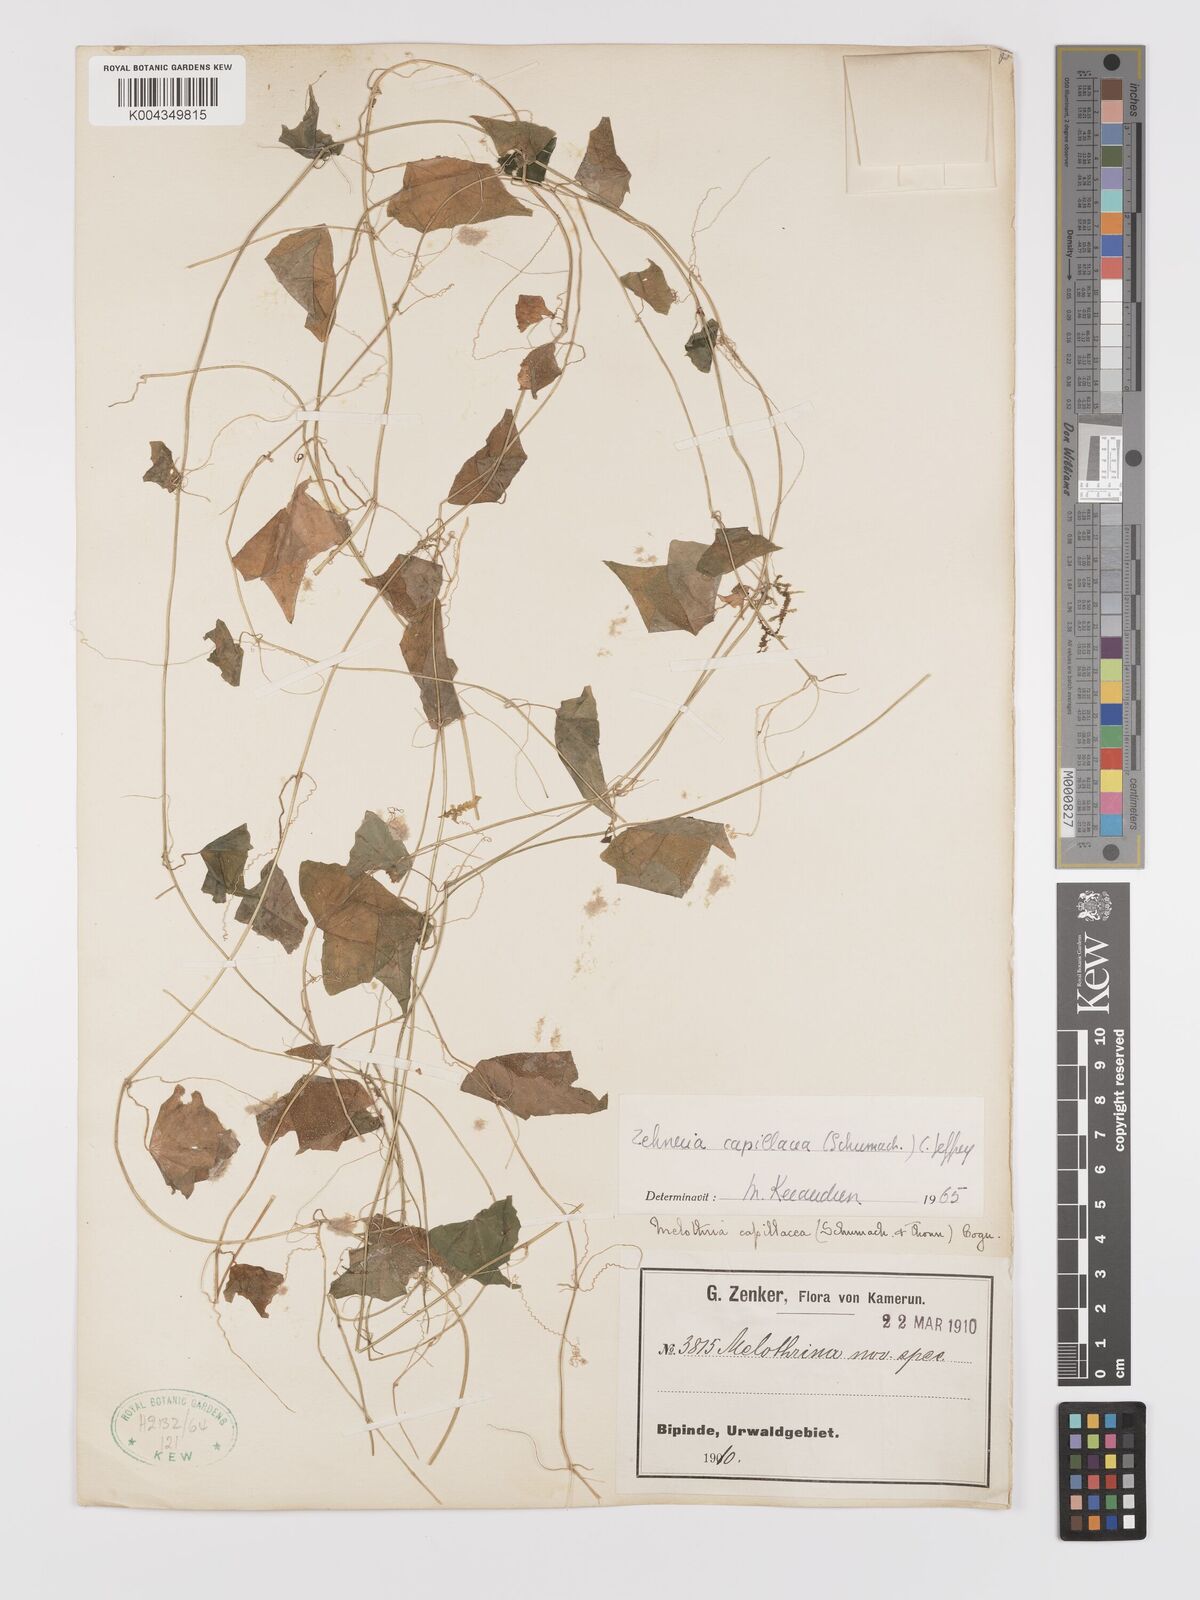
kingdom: Plantae
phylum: Tracheophyta
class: Magnoliopsida
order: Cucurbitales
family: Cucurbitaceae
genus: Zehneria
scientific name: Zehneria capillacea
